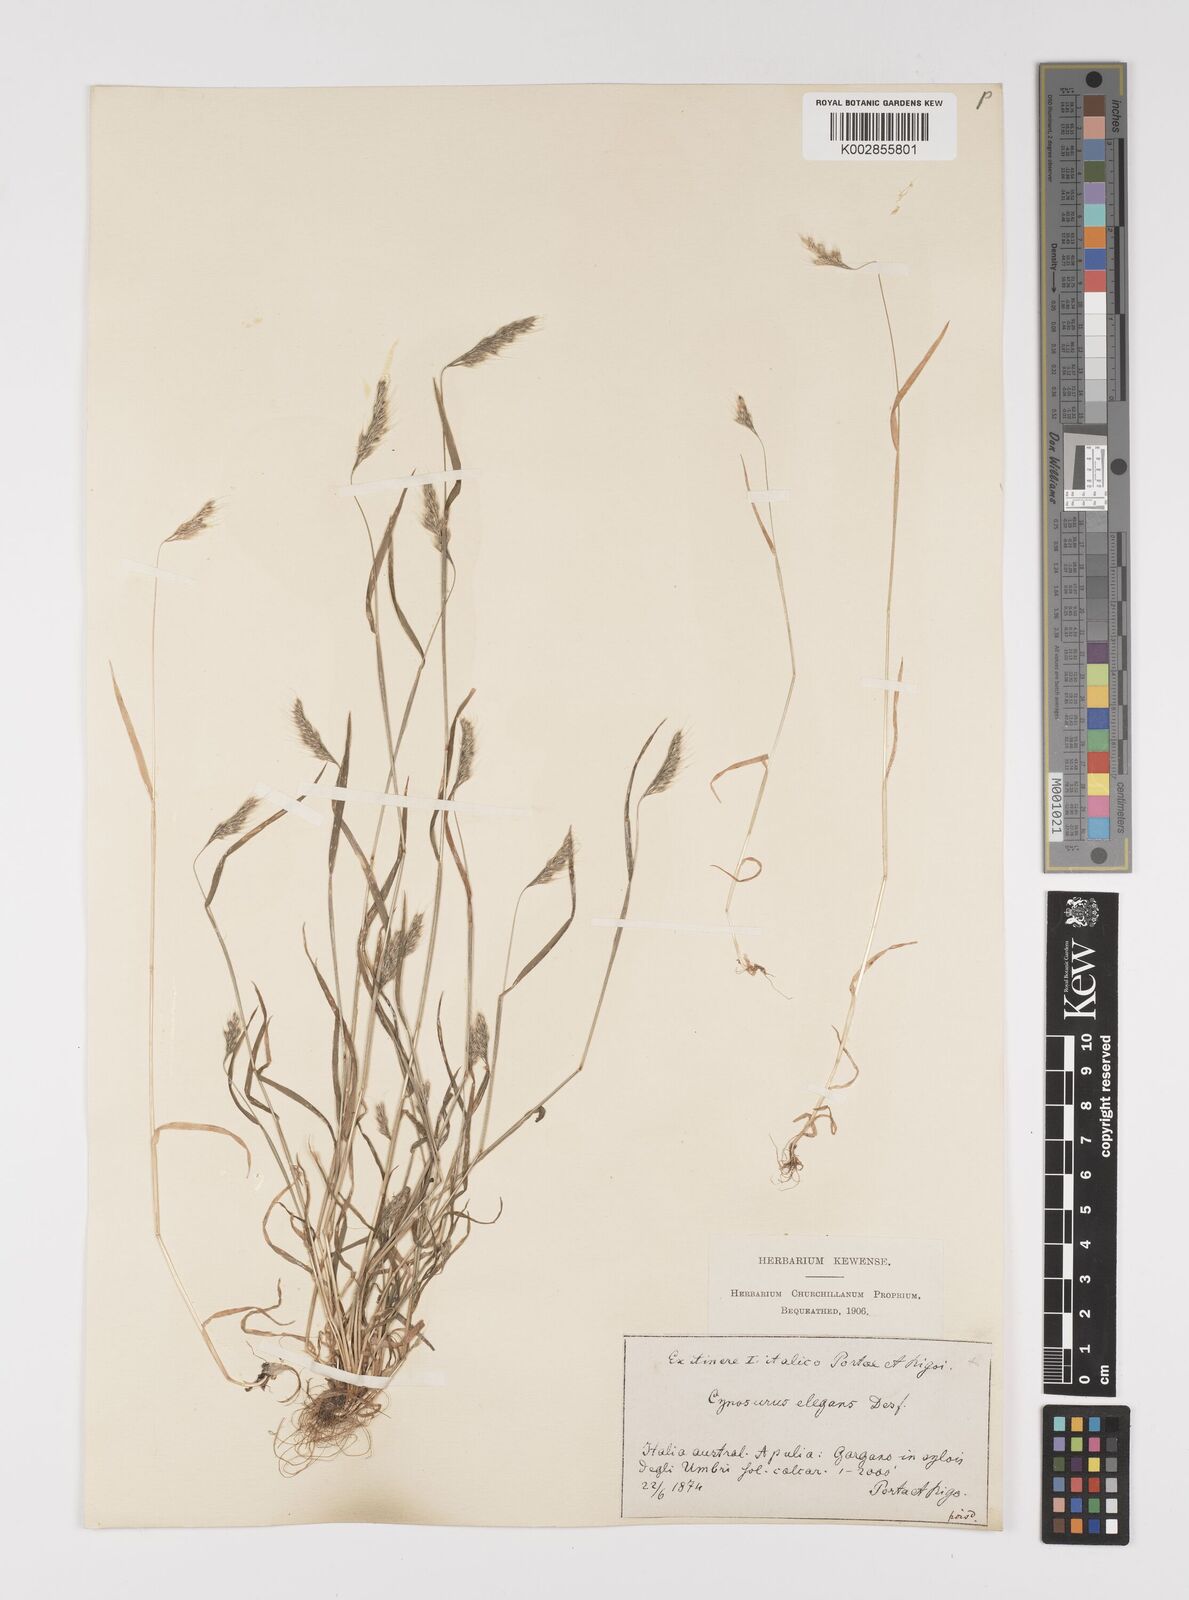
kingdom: Plantae
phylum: Tracheophyta
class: Liliopsida
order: Poales
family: Poaceae
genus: Cynosurus
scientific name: Cynosurus elegans
